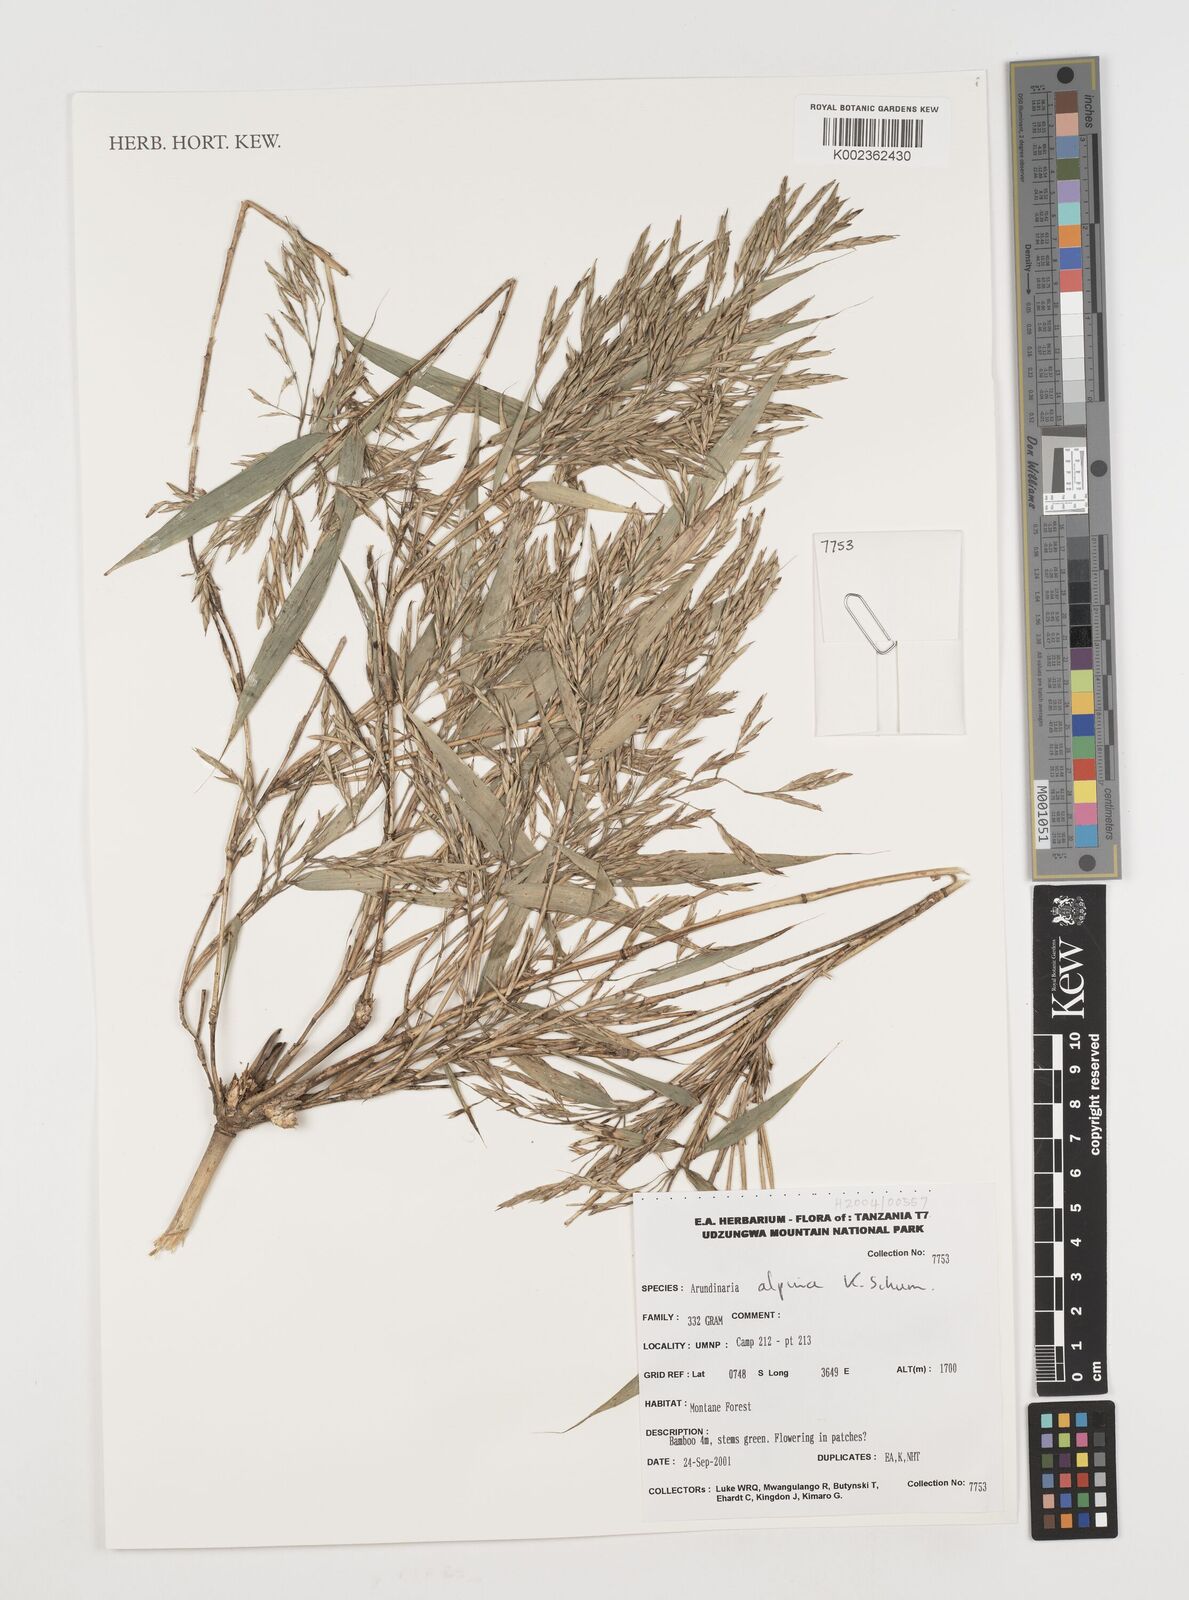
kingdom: Plantae
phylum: Tracheophyta
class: Liliopsida
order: Poales
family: Poaceae
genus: Oldeania
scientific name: Oldeania alpina
